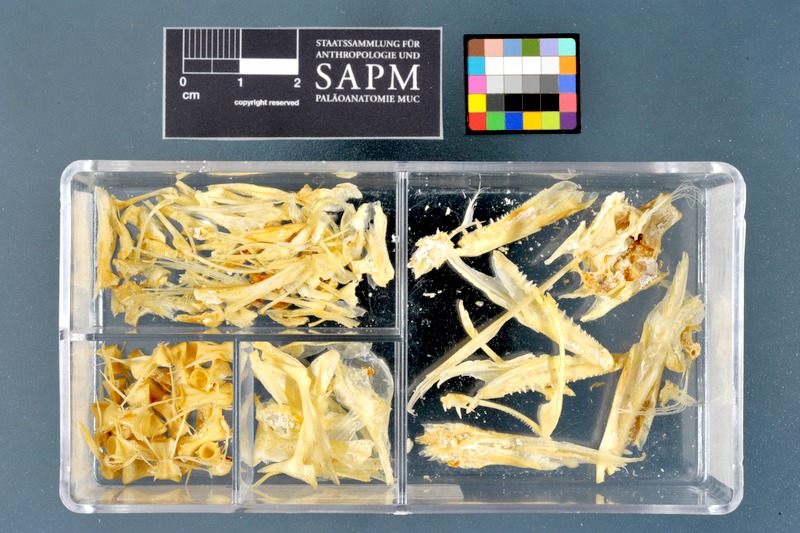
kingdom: Animalia
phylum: Chordata
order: Perciformes
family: Sphyraenidae
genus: Sphyraena
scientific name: Sphyraena sphyraena
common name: European barracuda
